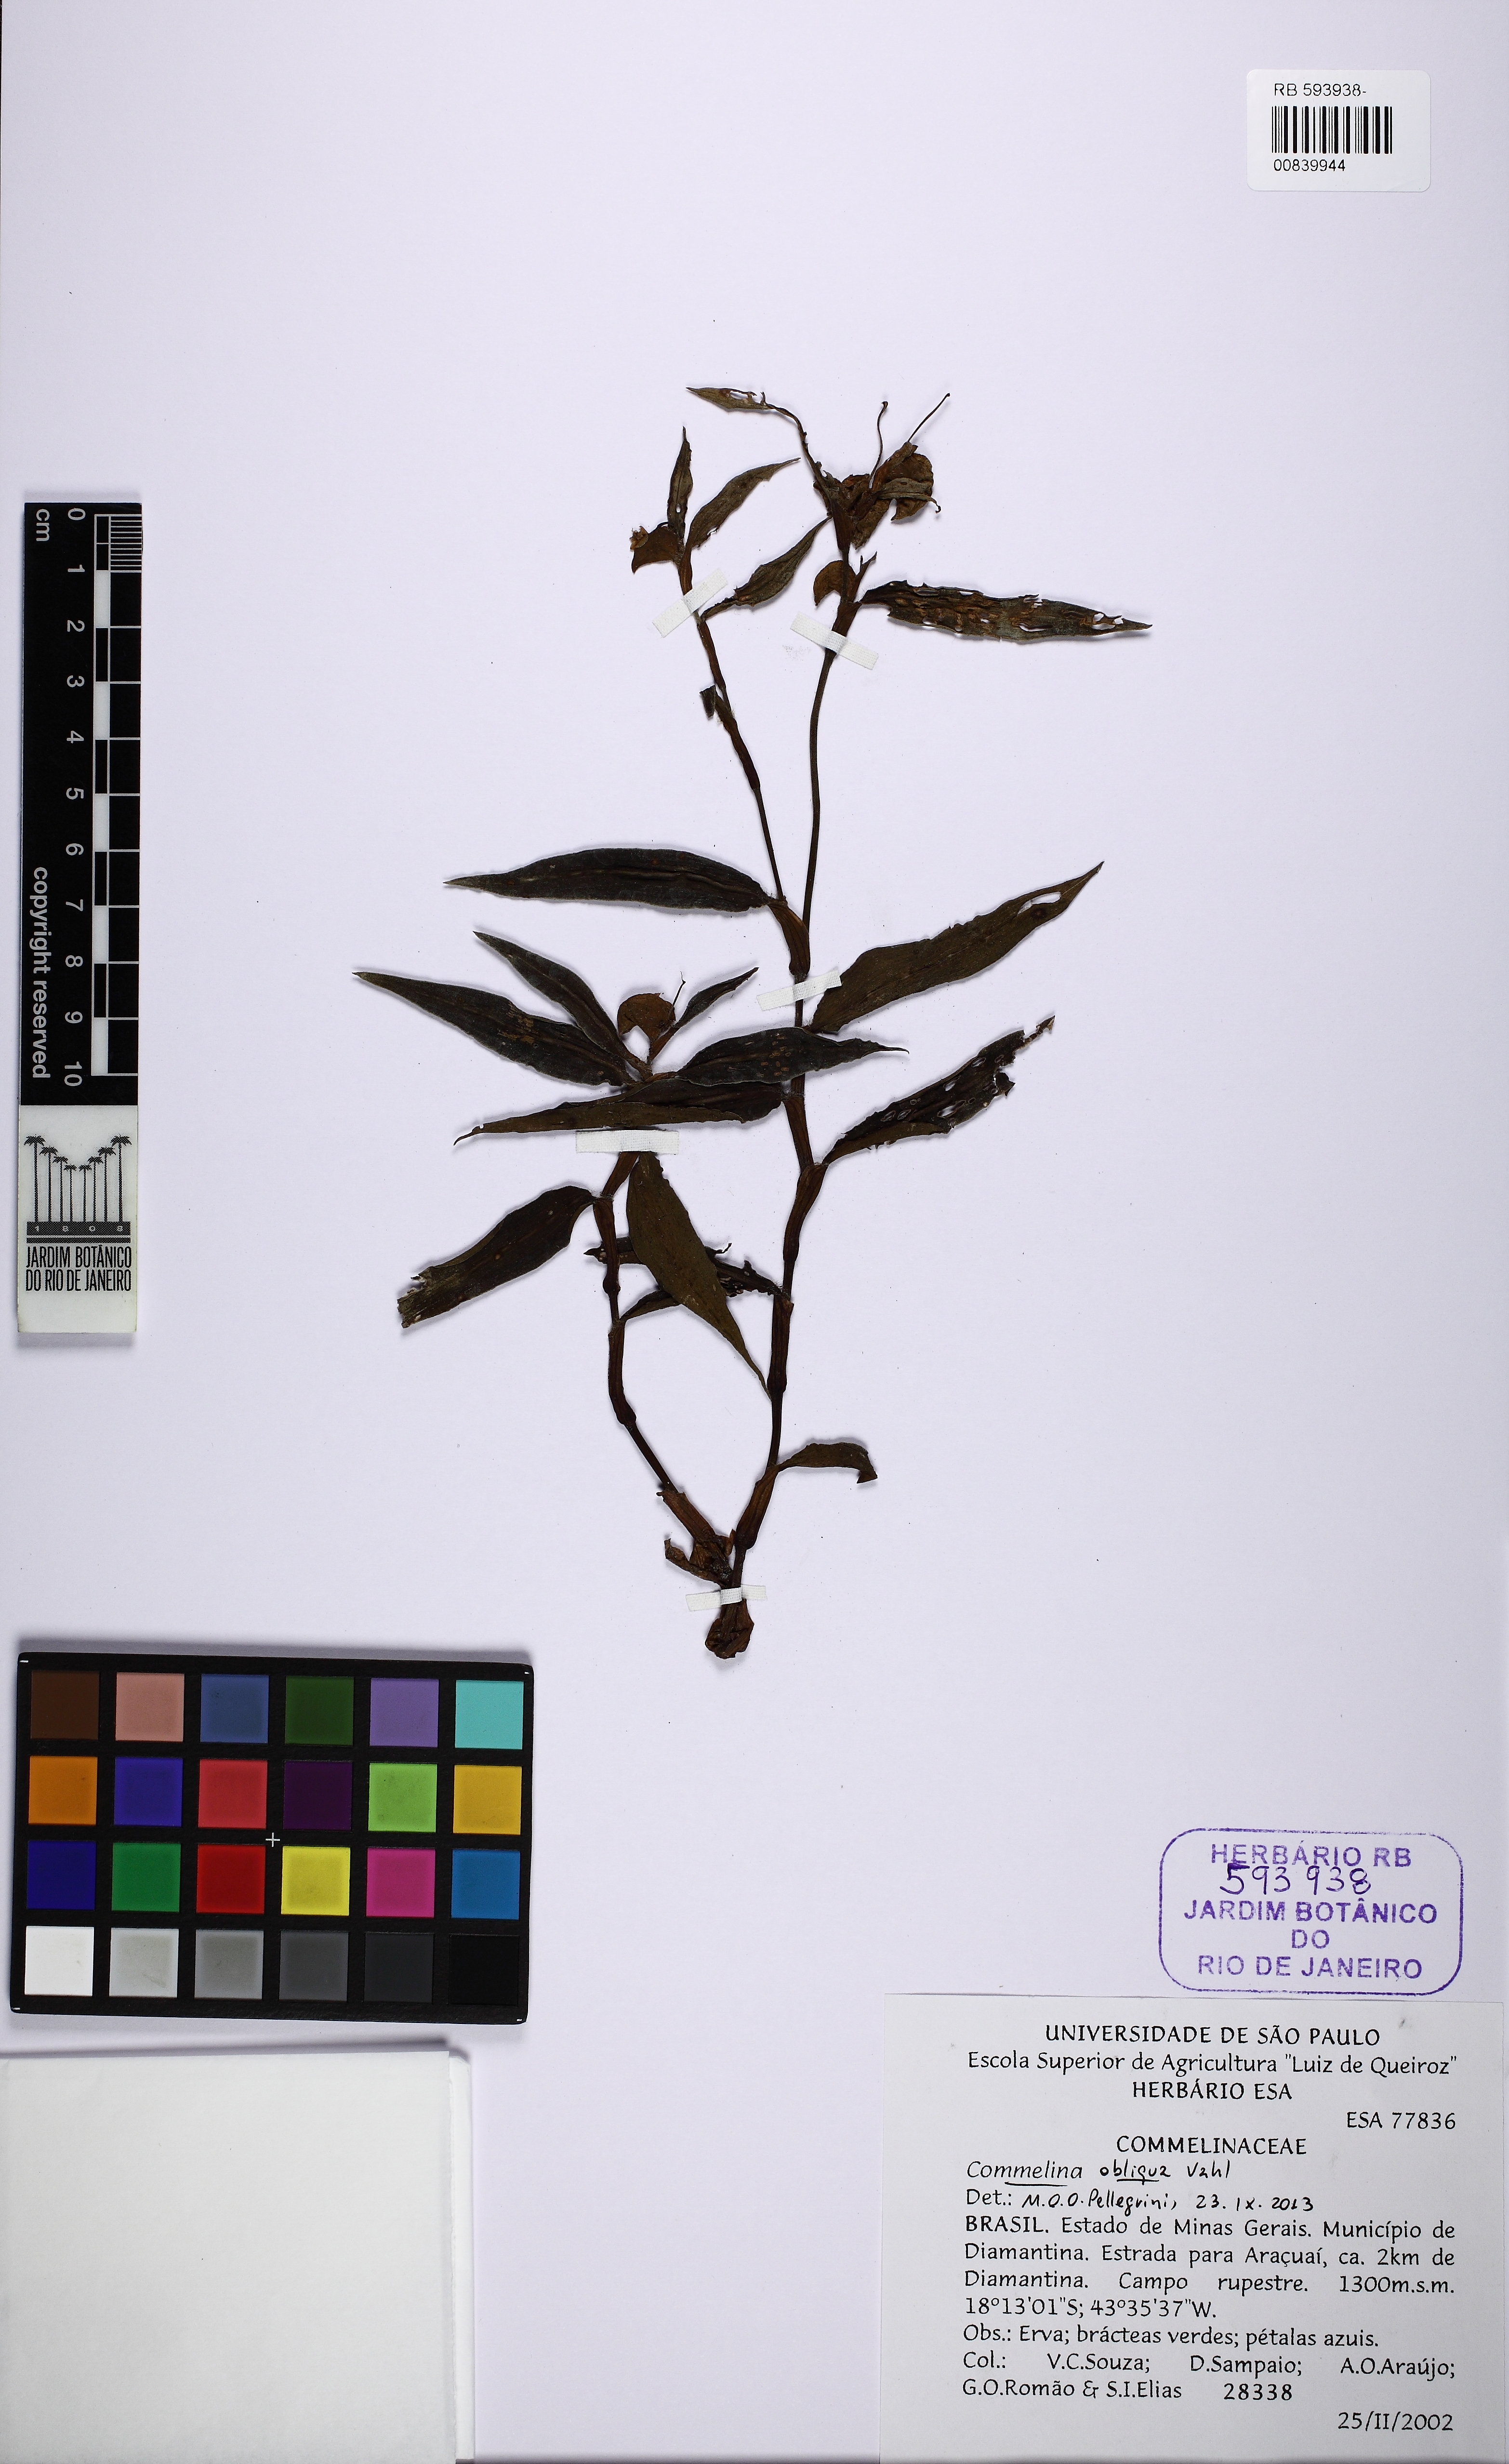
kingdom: Plantae
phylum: Tracheophyta
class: Liliopsida
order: Commelinales
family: Commelinaceae
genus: Commelina
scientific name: Commelina obliqua
